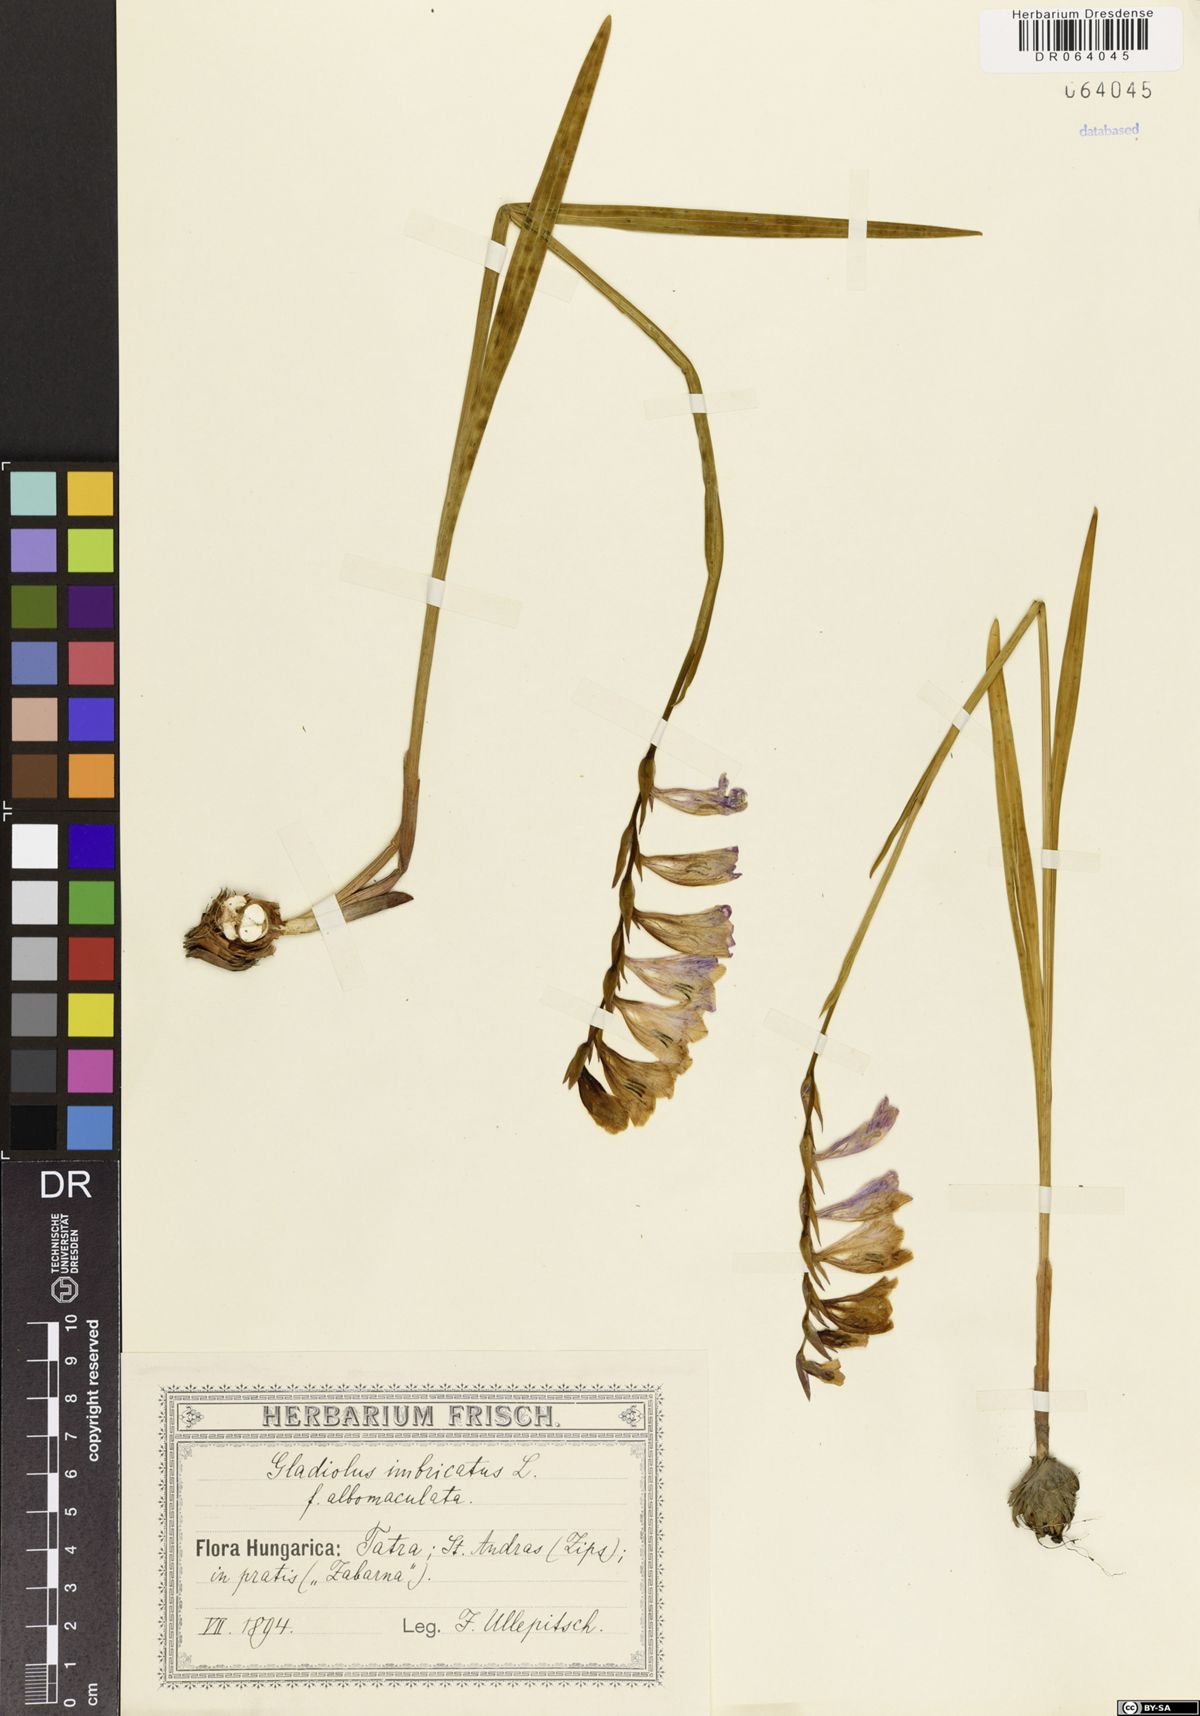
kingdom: Plantae
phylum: Tracheophyta
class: Liliopsida
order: Asparagales
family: Iridaceae
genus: Gladiolus
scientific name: Gladiolus imbricatus
